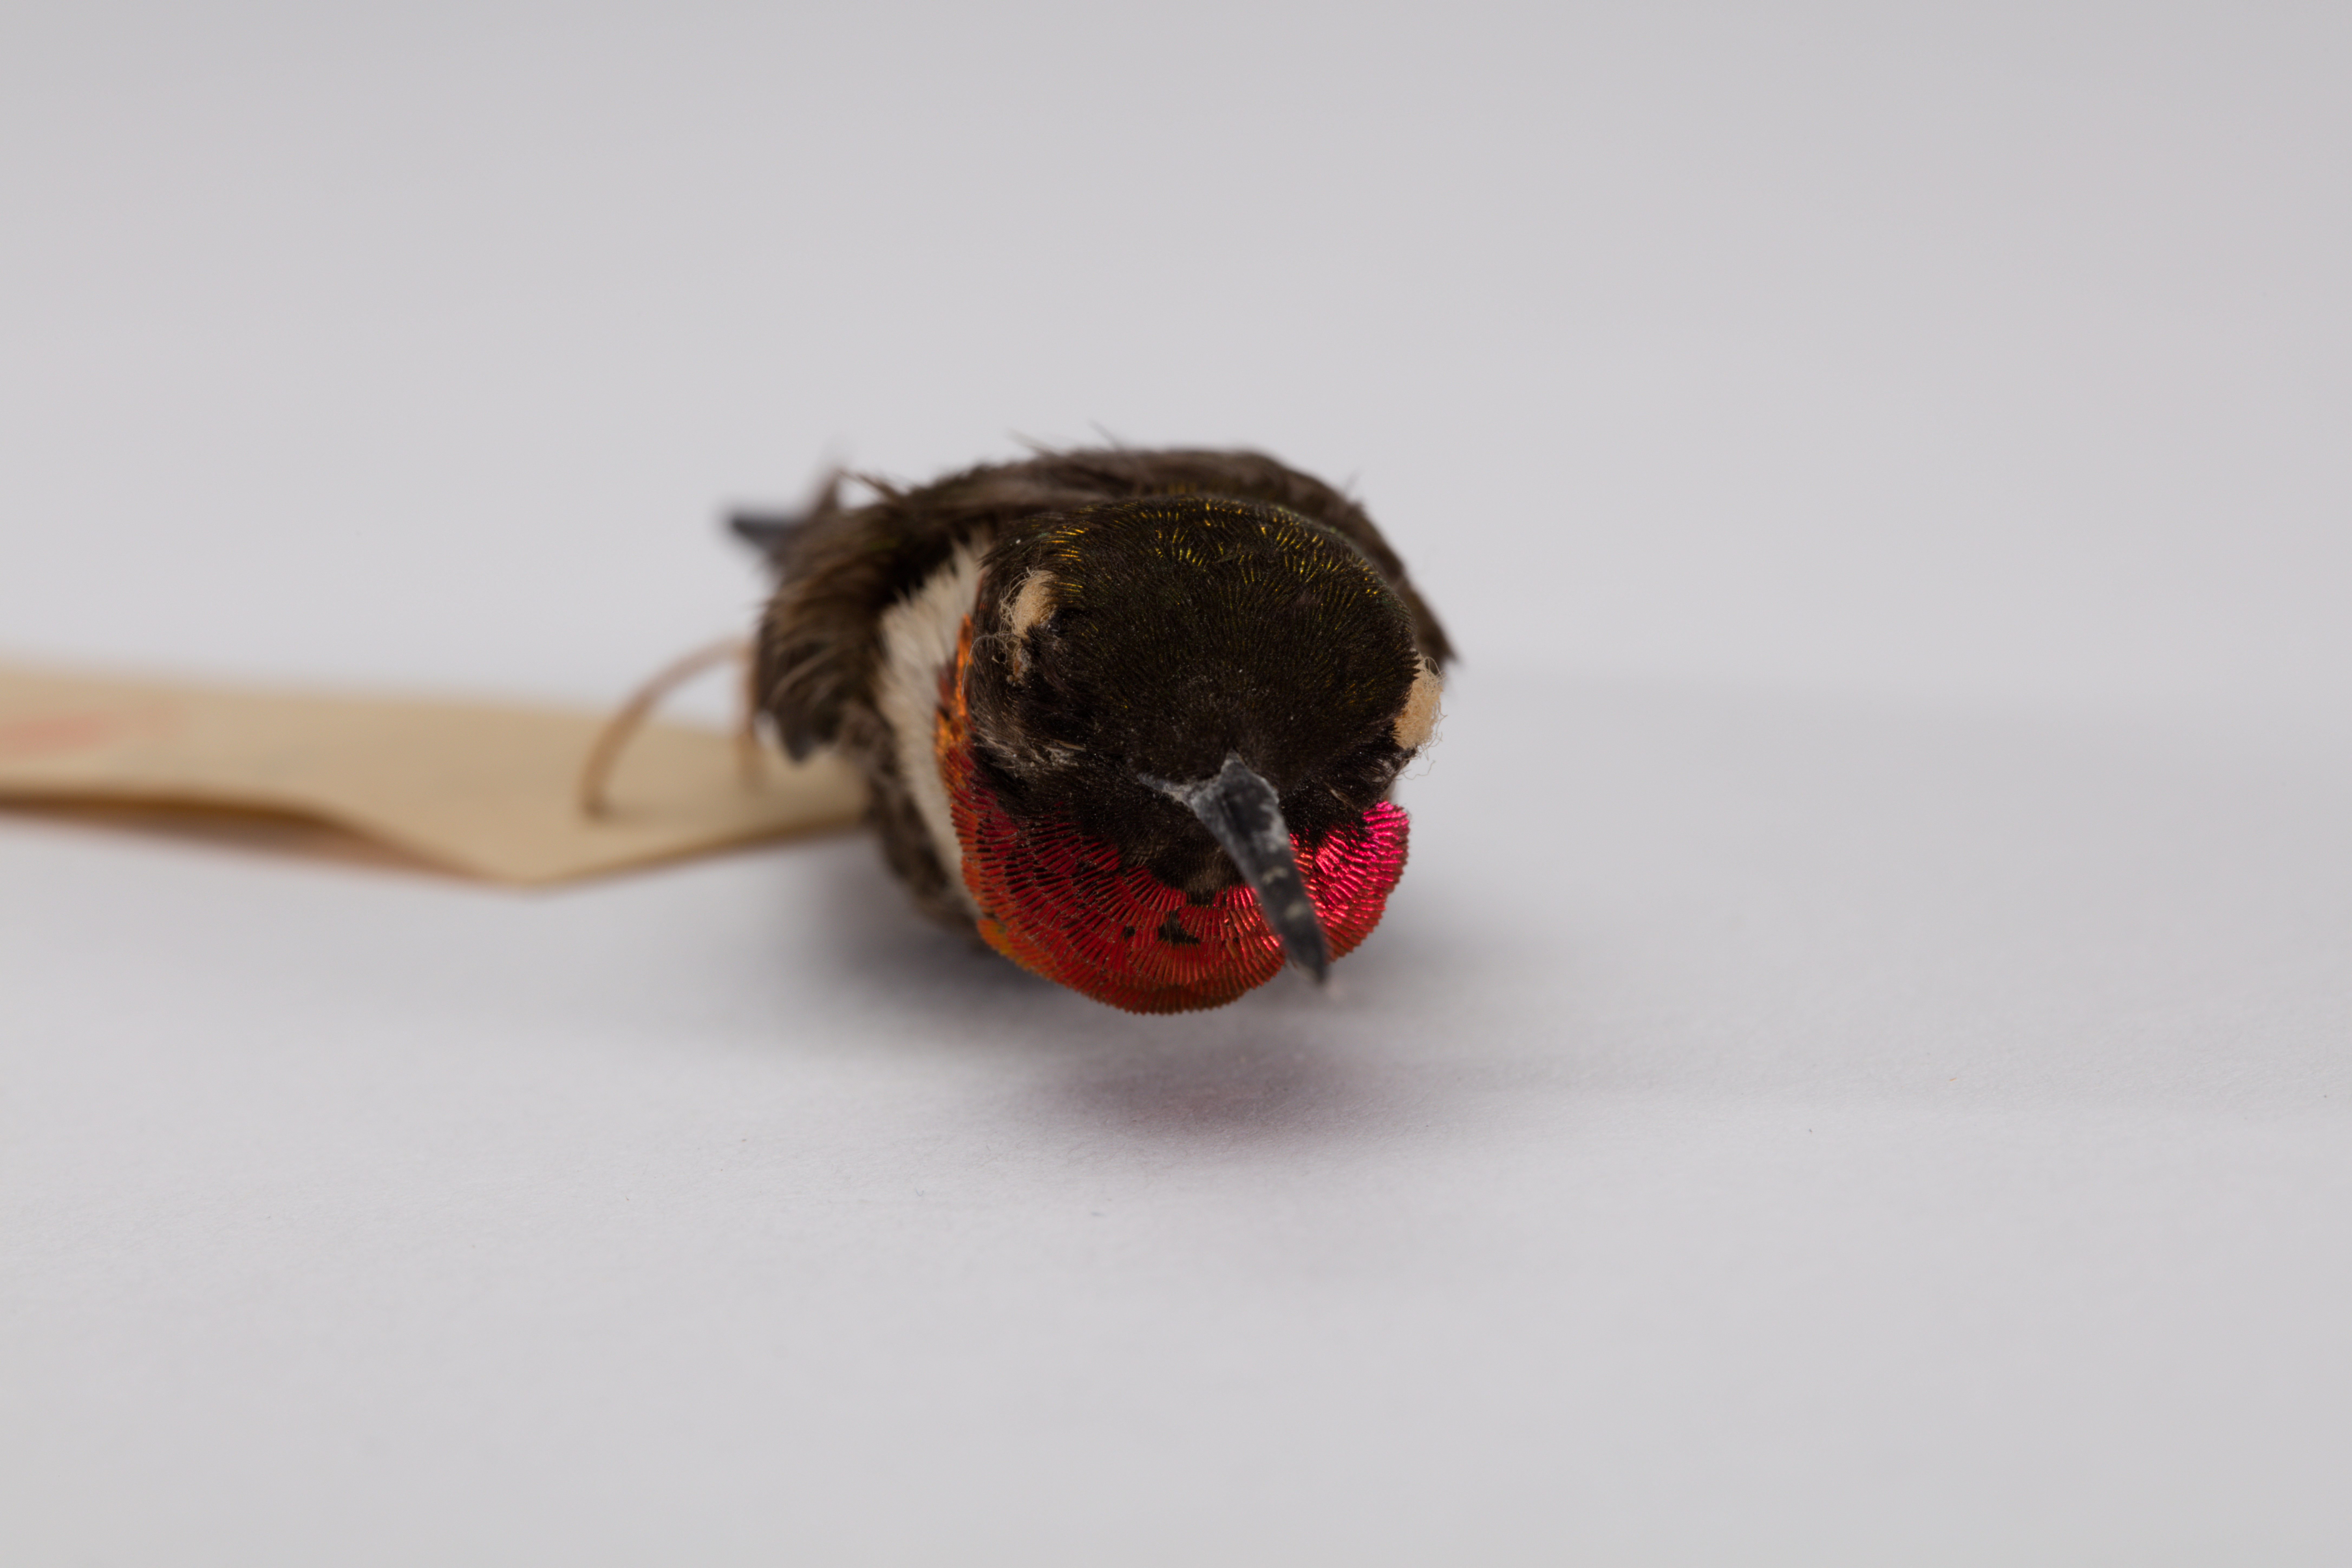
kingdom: Animalia
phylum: Chordata
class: Aves
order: Apodiformes
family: Trochilidae
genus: Archilochus
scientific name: Archilochus colubris
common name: Ruby-throated hummingbird
